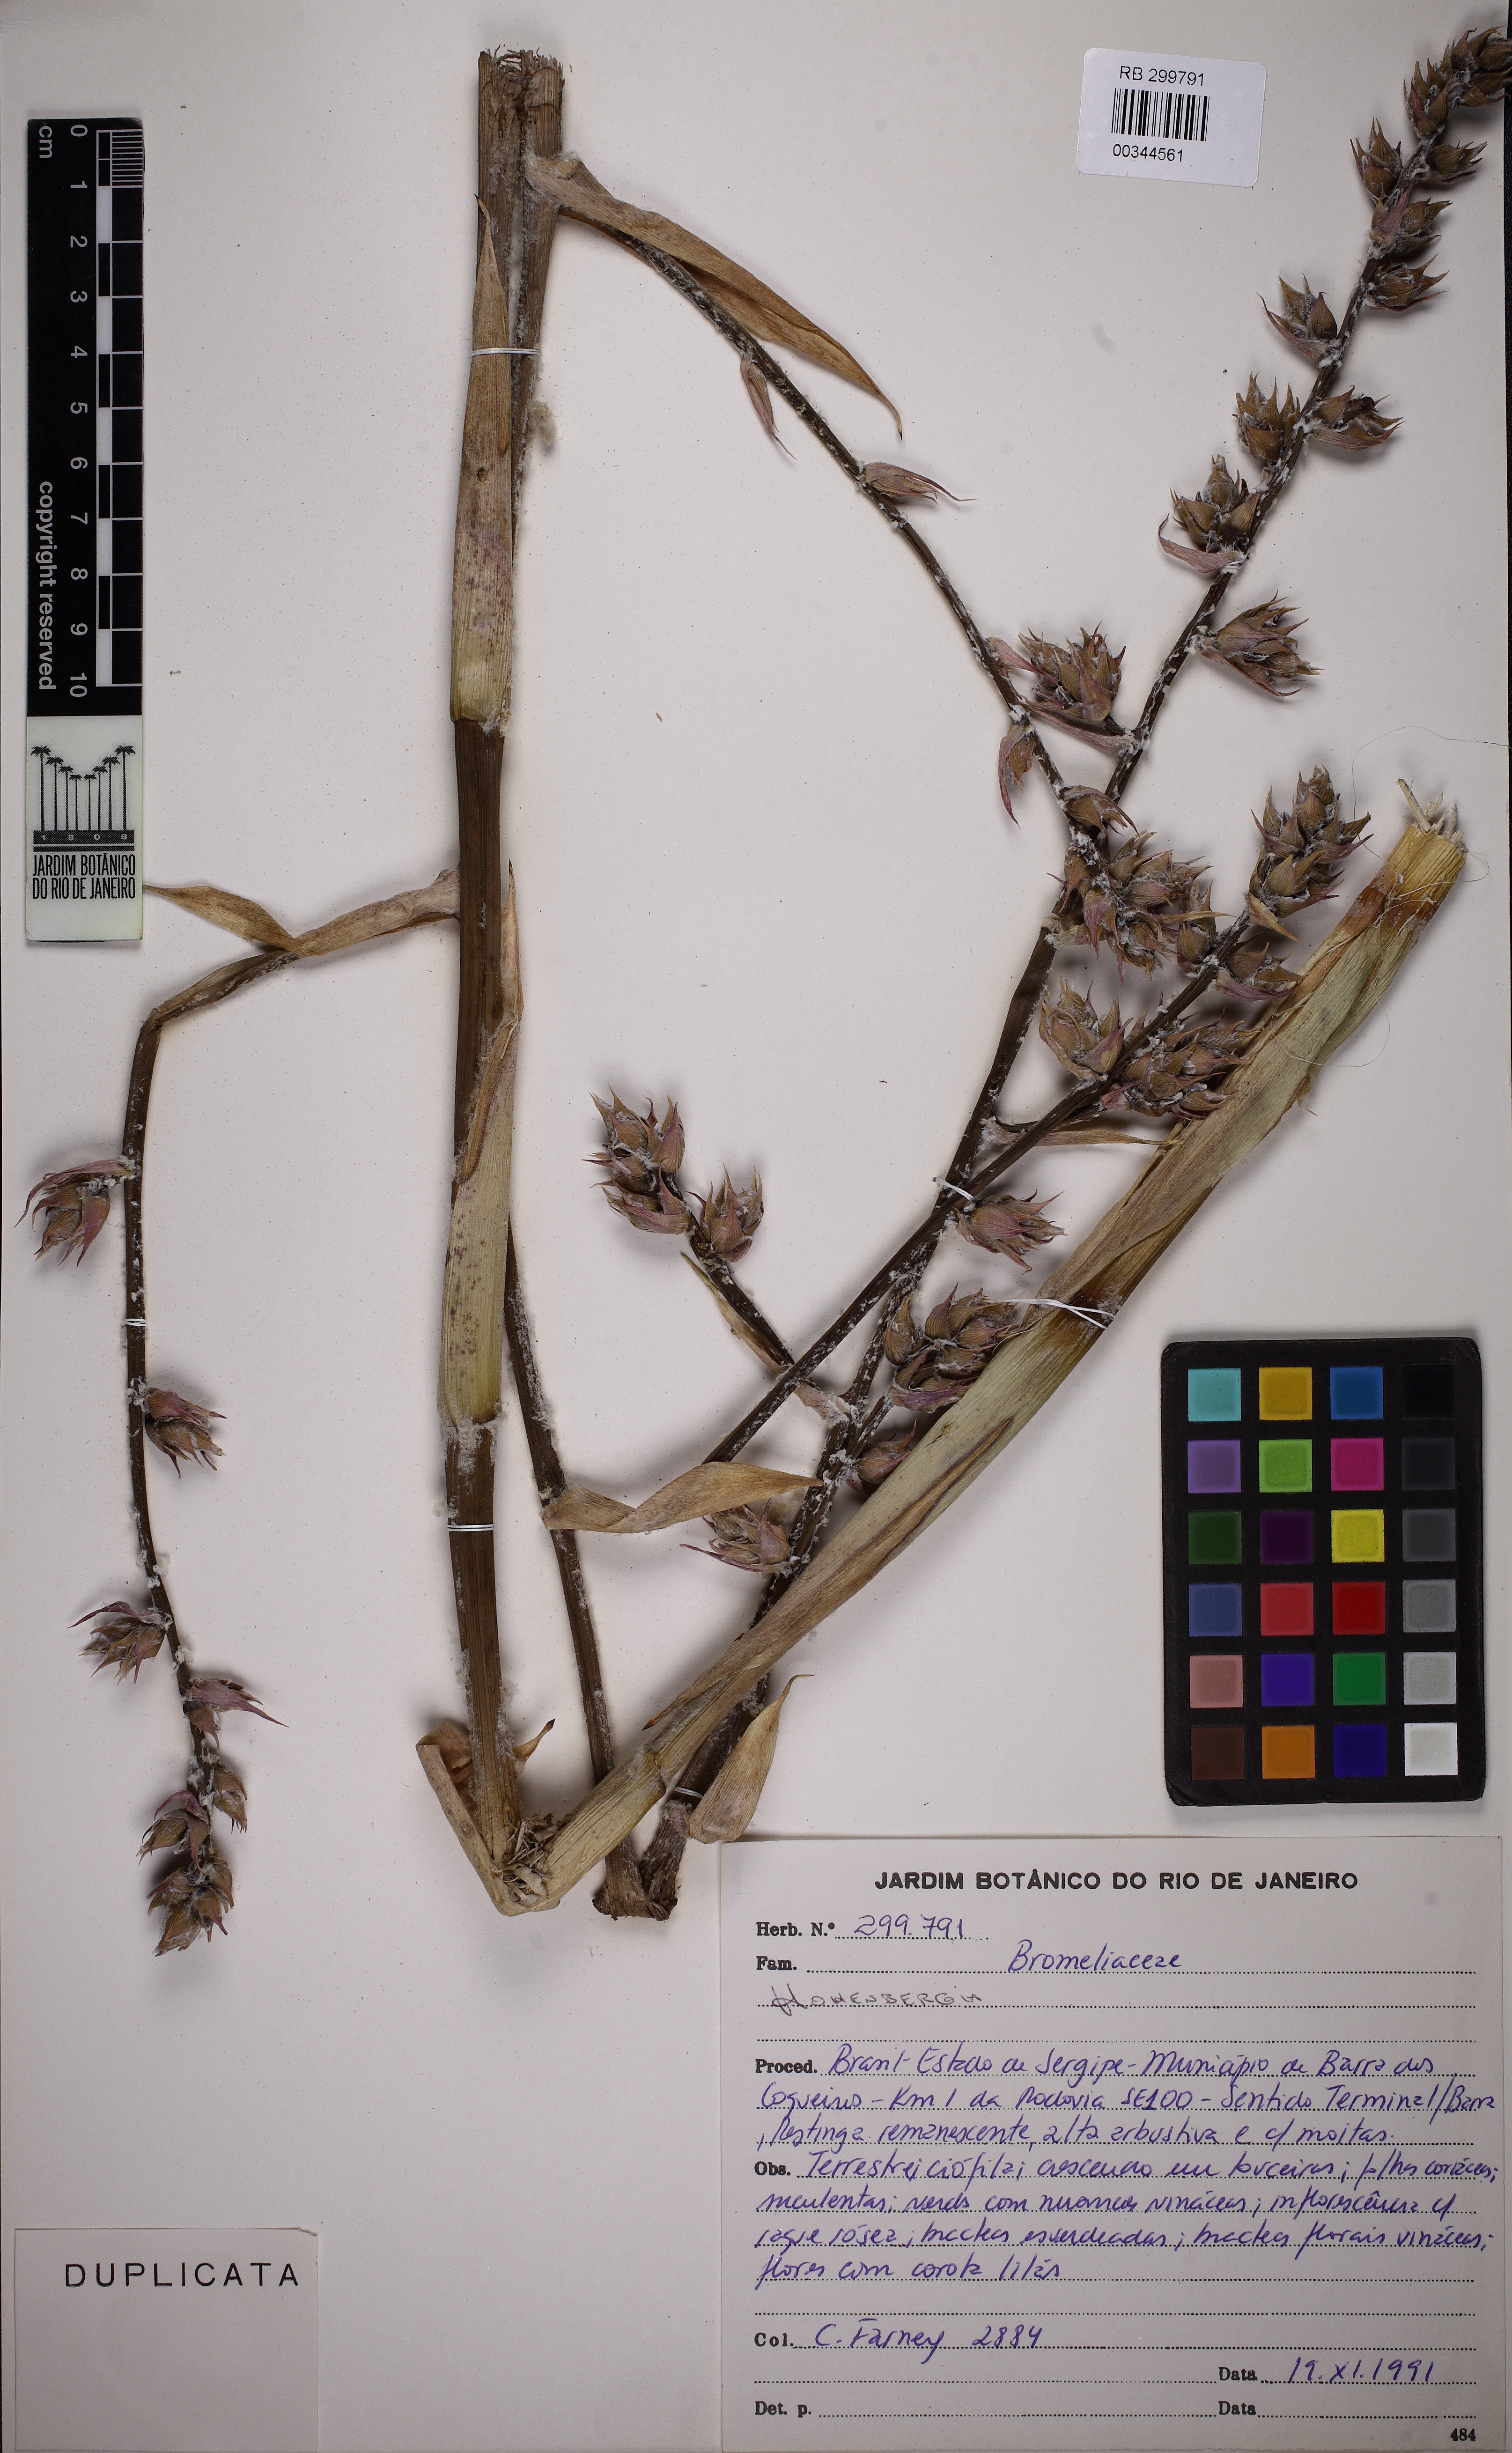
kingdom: Plantae
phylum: Tracheophyta
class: Liliopsida
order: Poales
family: Bromeliaceae
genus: Hohenbergia
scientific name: Hohenbergia catingae
